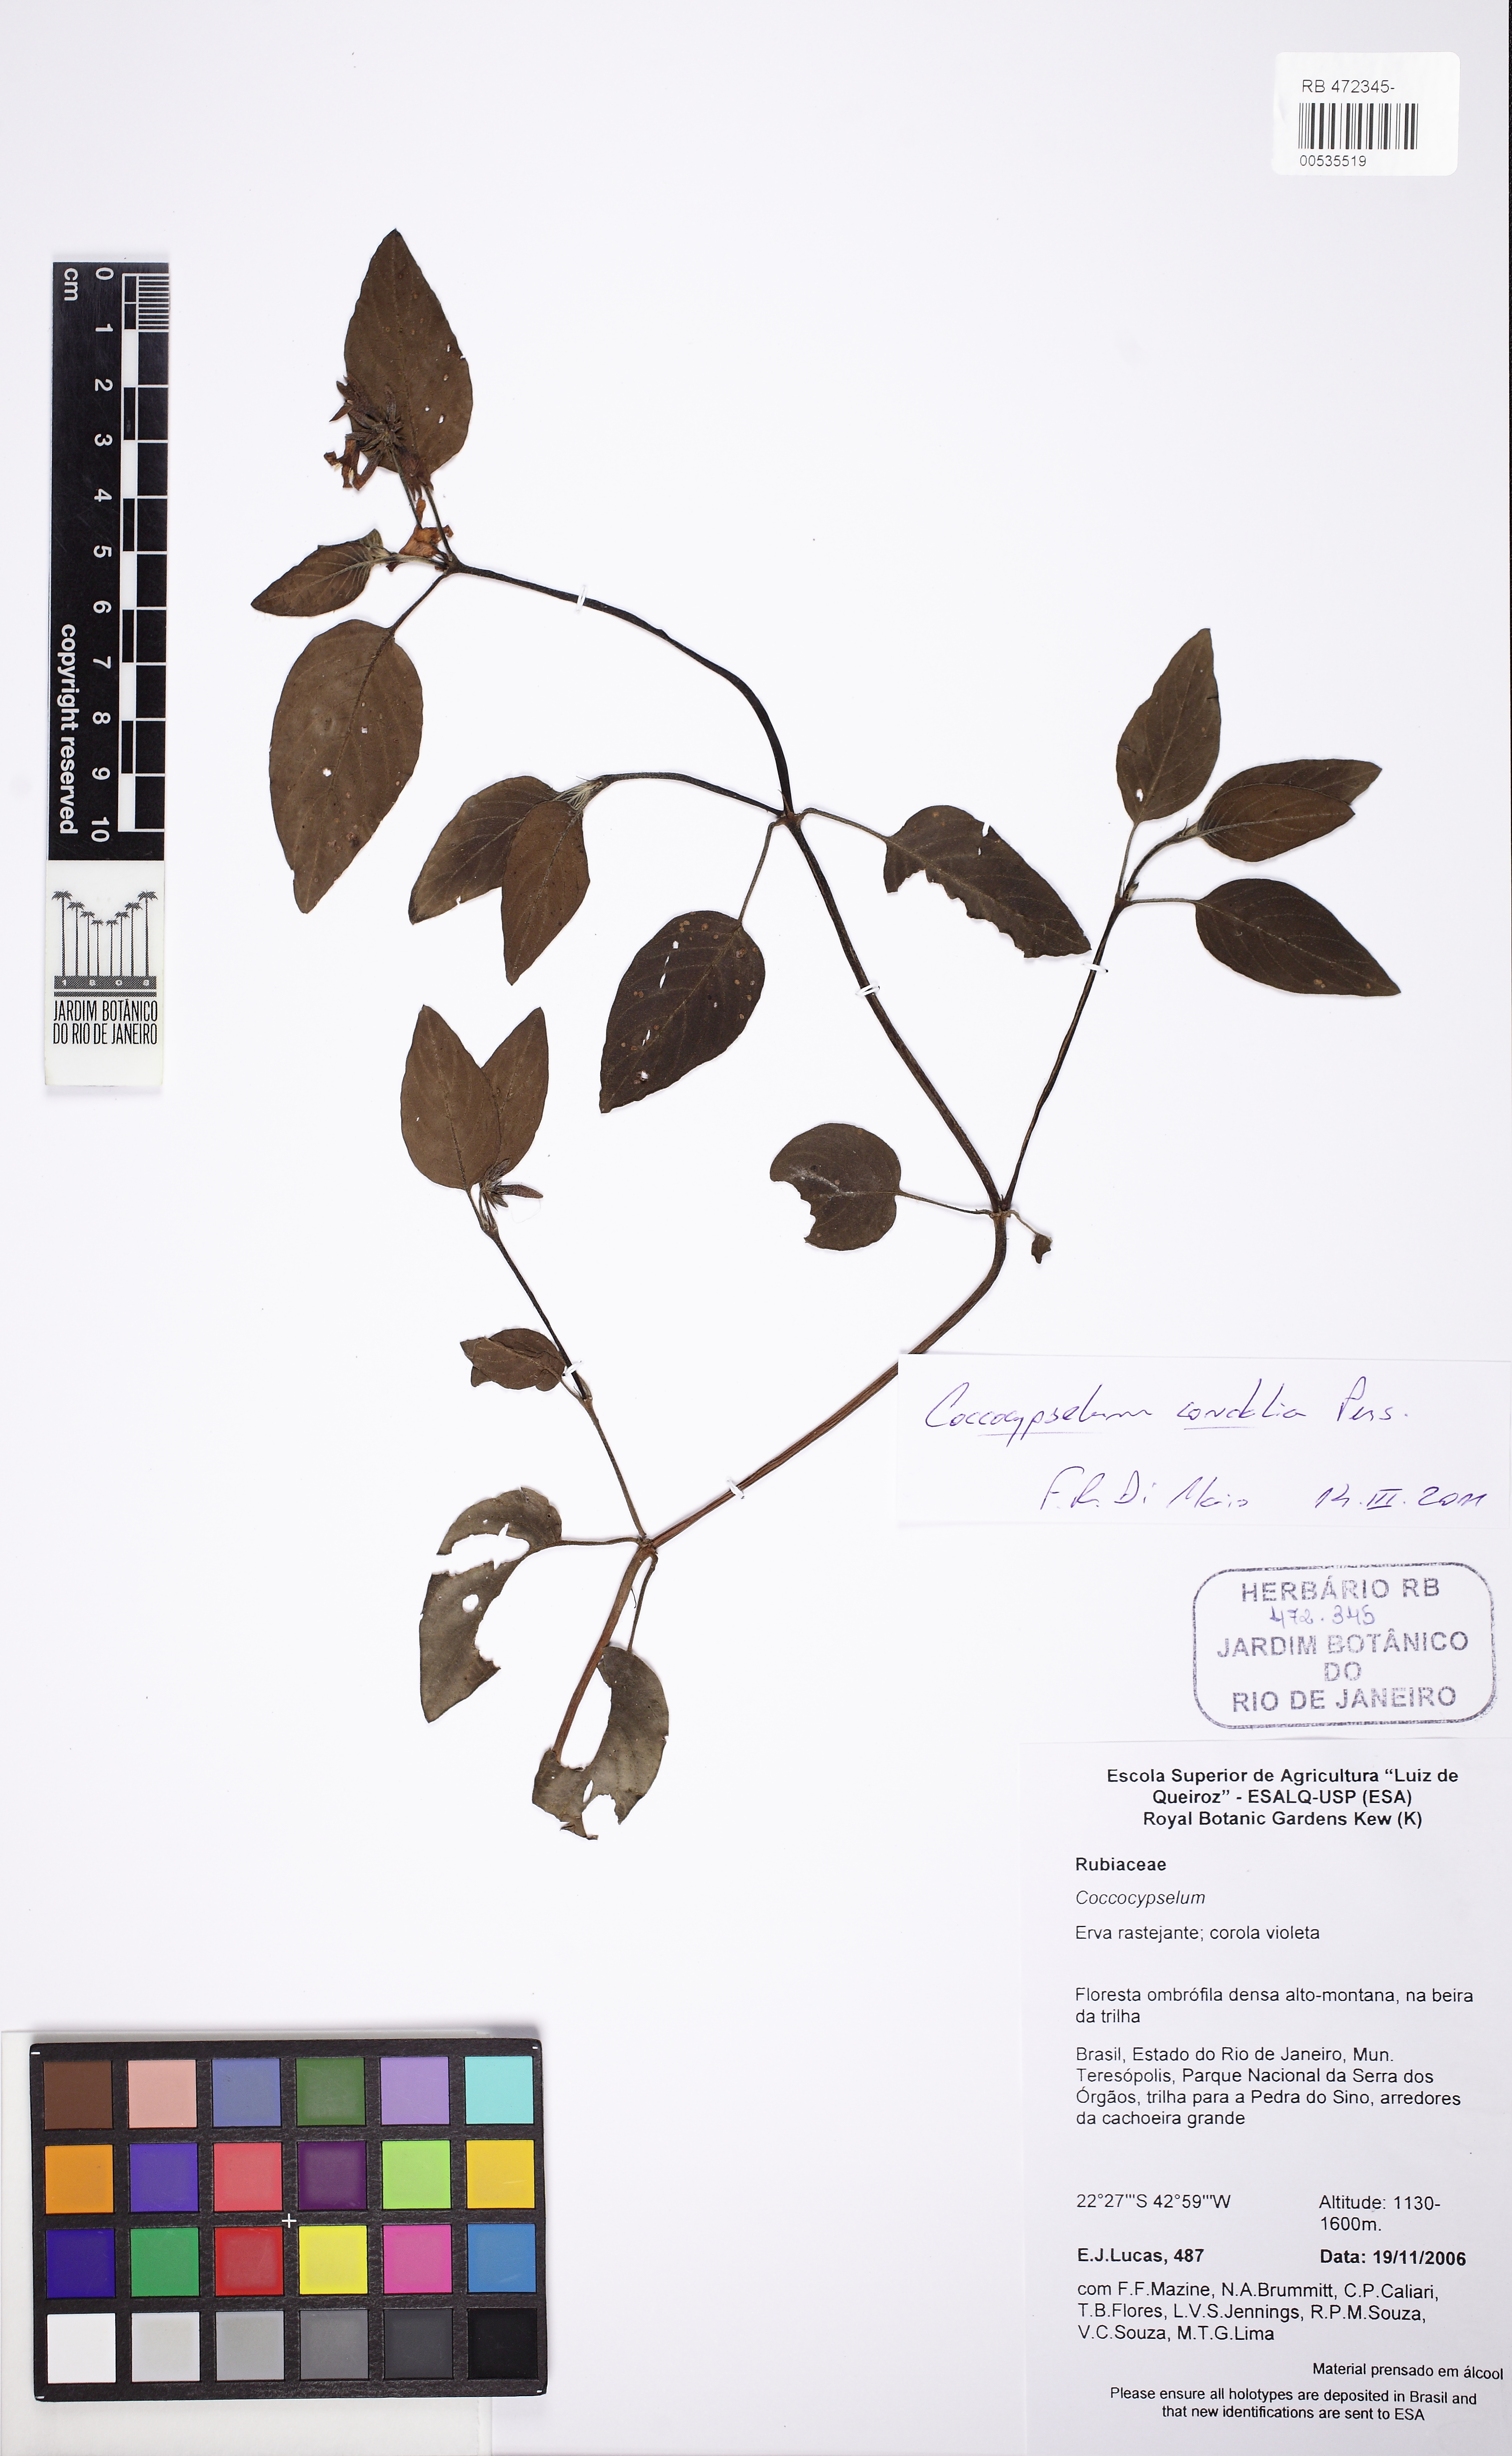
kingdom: Plantae
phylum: Tracheophyta
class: Magnoliopsida
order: Gentianales
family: Rubiaceae
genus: Coccocypselum
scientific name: Coccocypselum condalia
